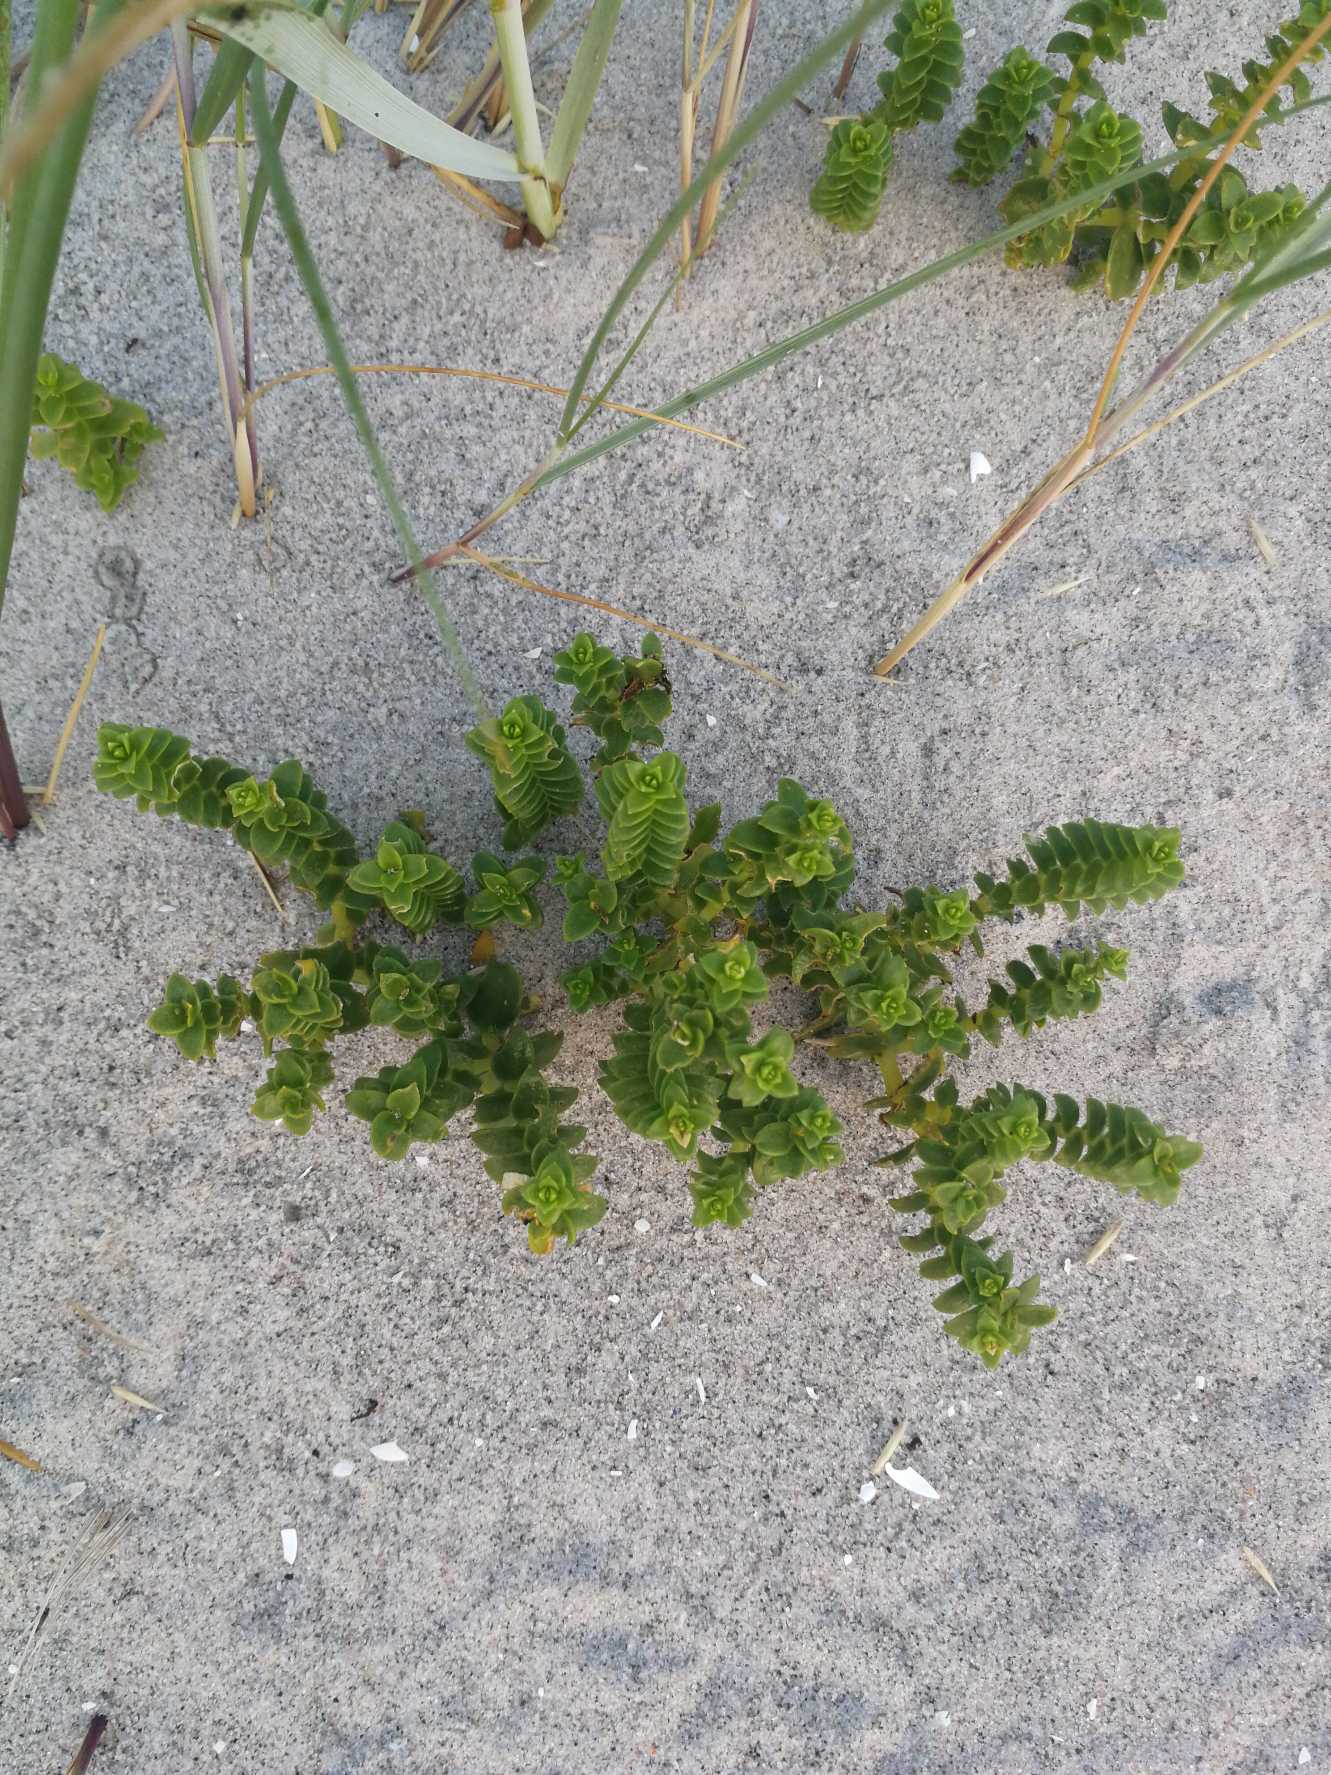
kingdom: Plantae
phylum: Tracheophyta
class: Magnoliopsida
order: Caryophyllales
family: Caryophyllaceae
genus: Honckenya
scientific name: Honckenya peploides
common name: Strandarve
